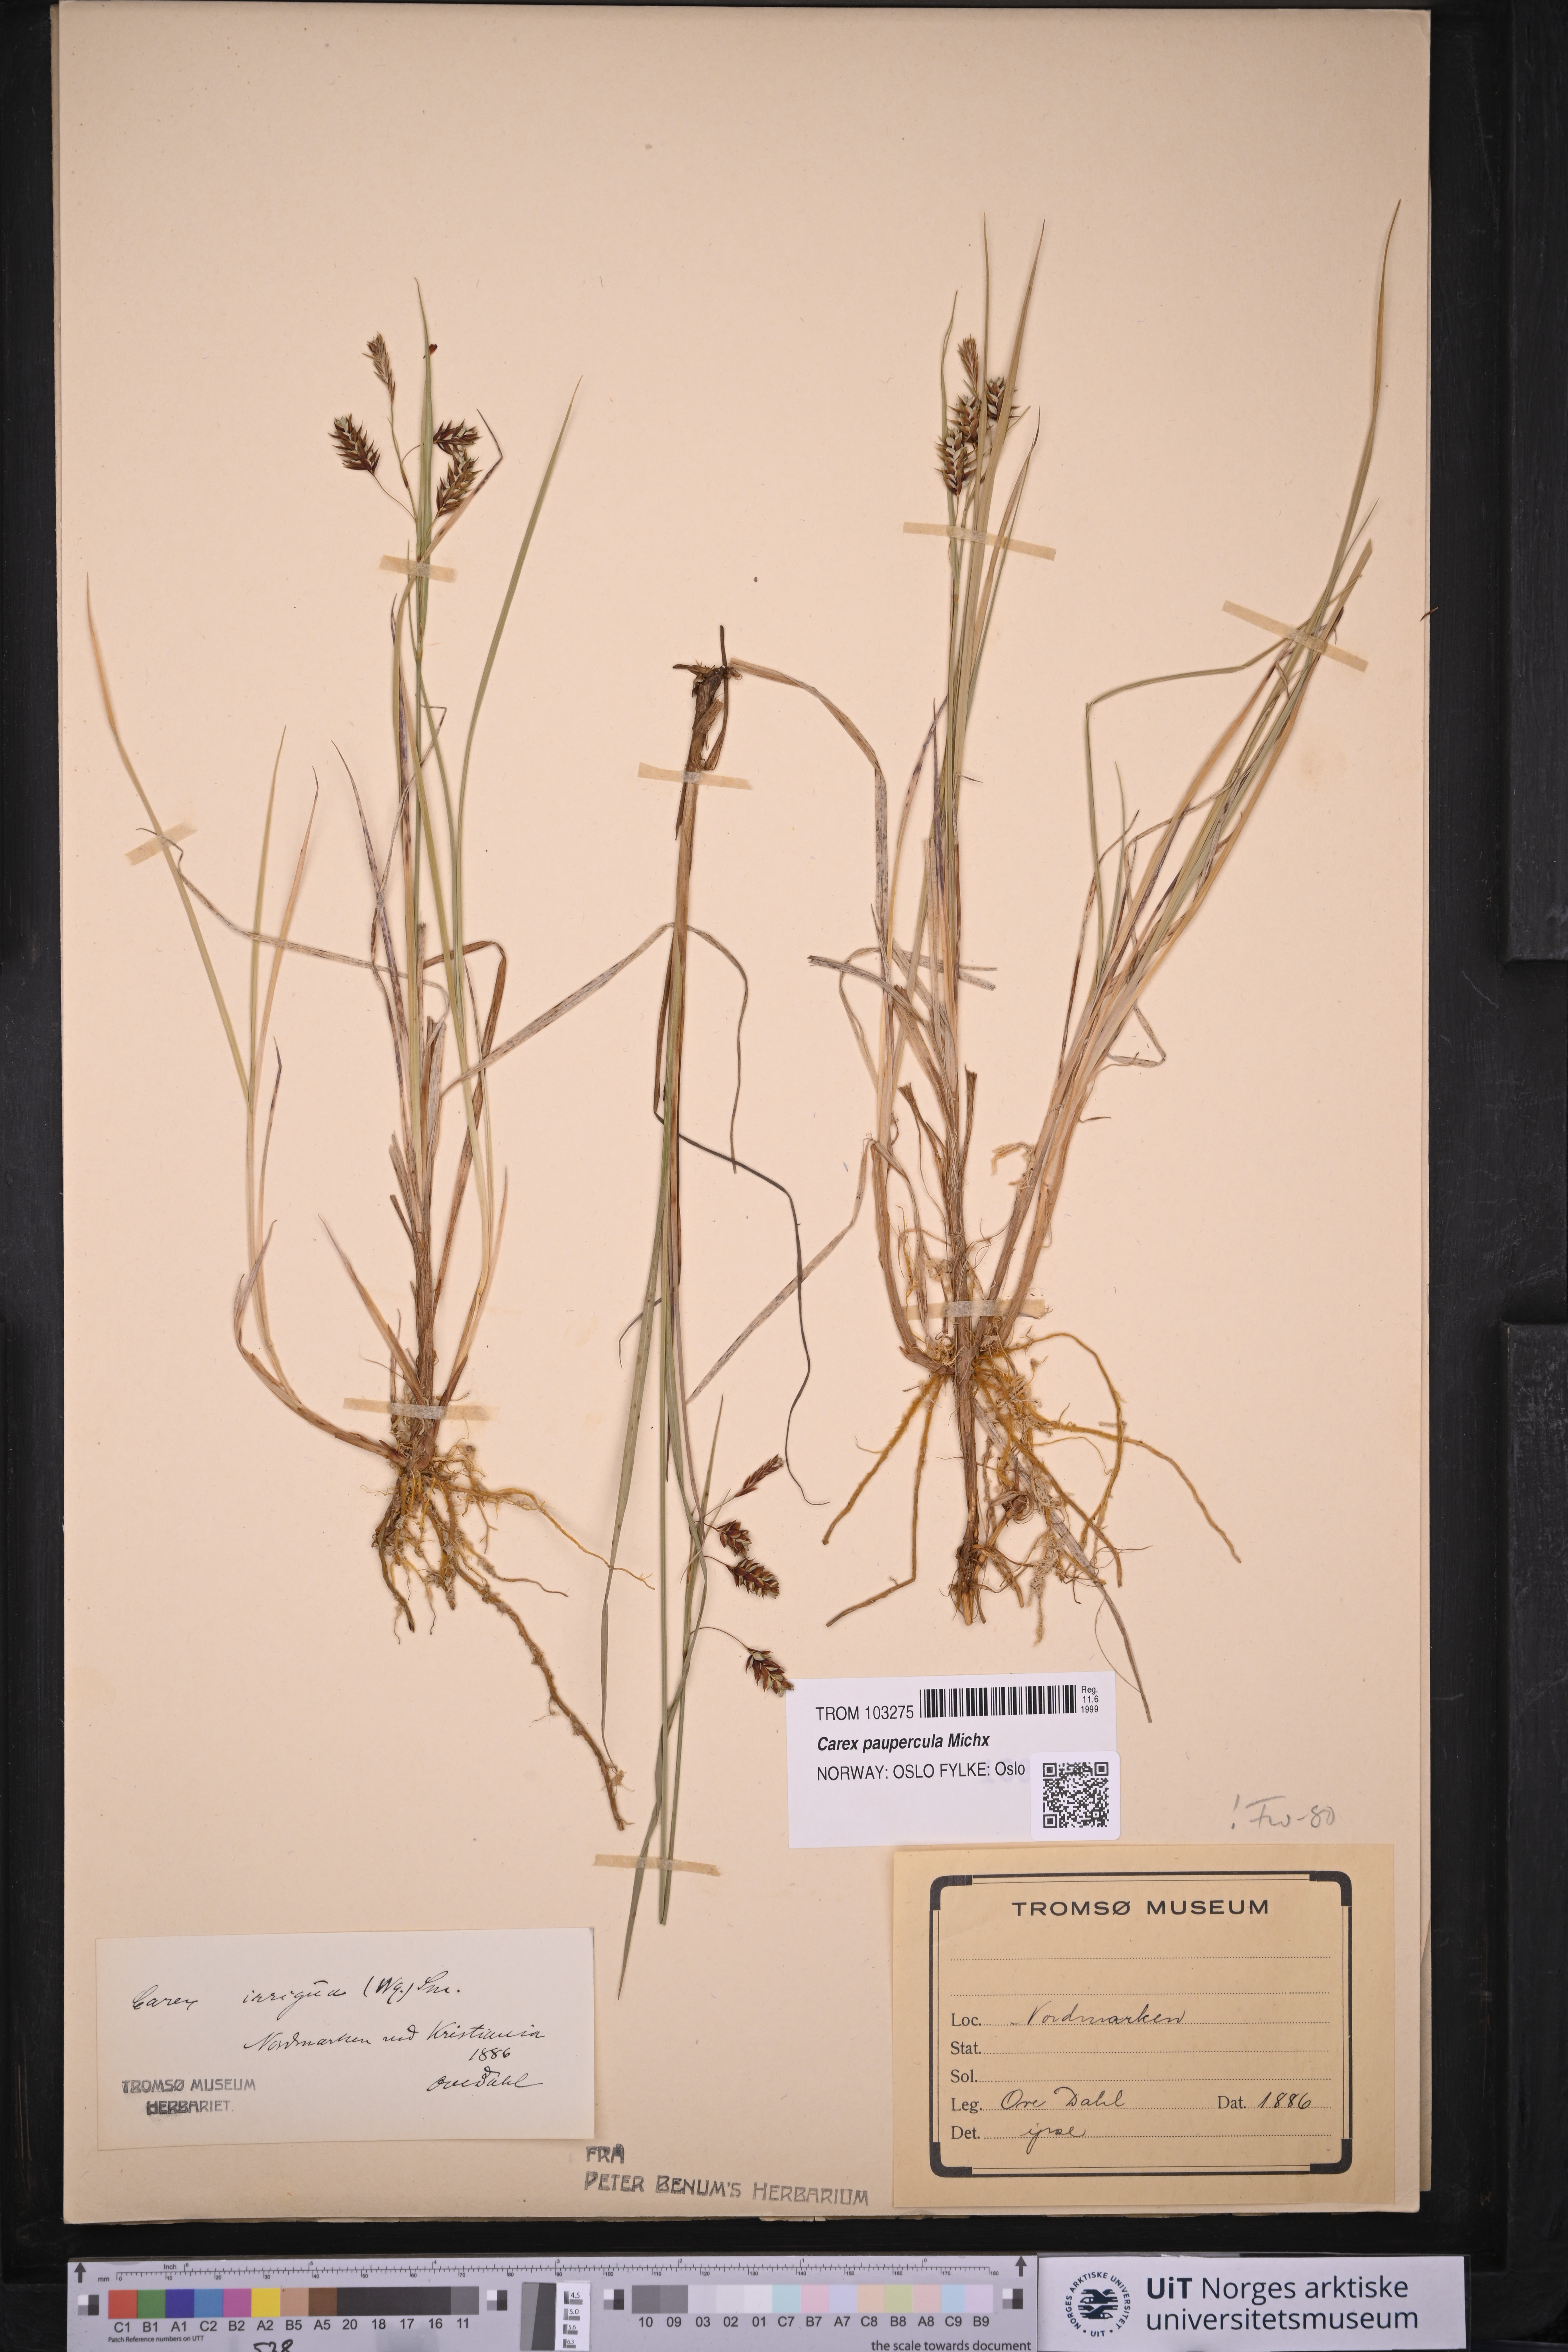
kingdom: Plantae
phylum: Tracheophyta
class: Liliopsida
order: Poales
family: Cyperaceae
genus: Carex
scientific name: Carex magellanica
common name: Bog sedge
